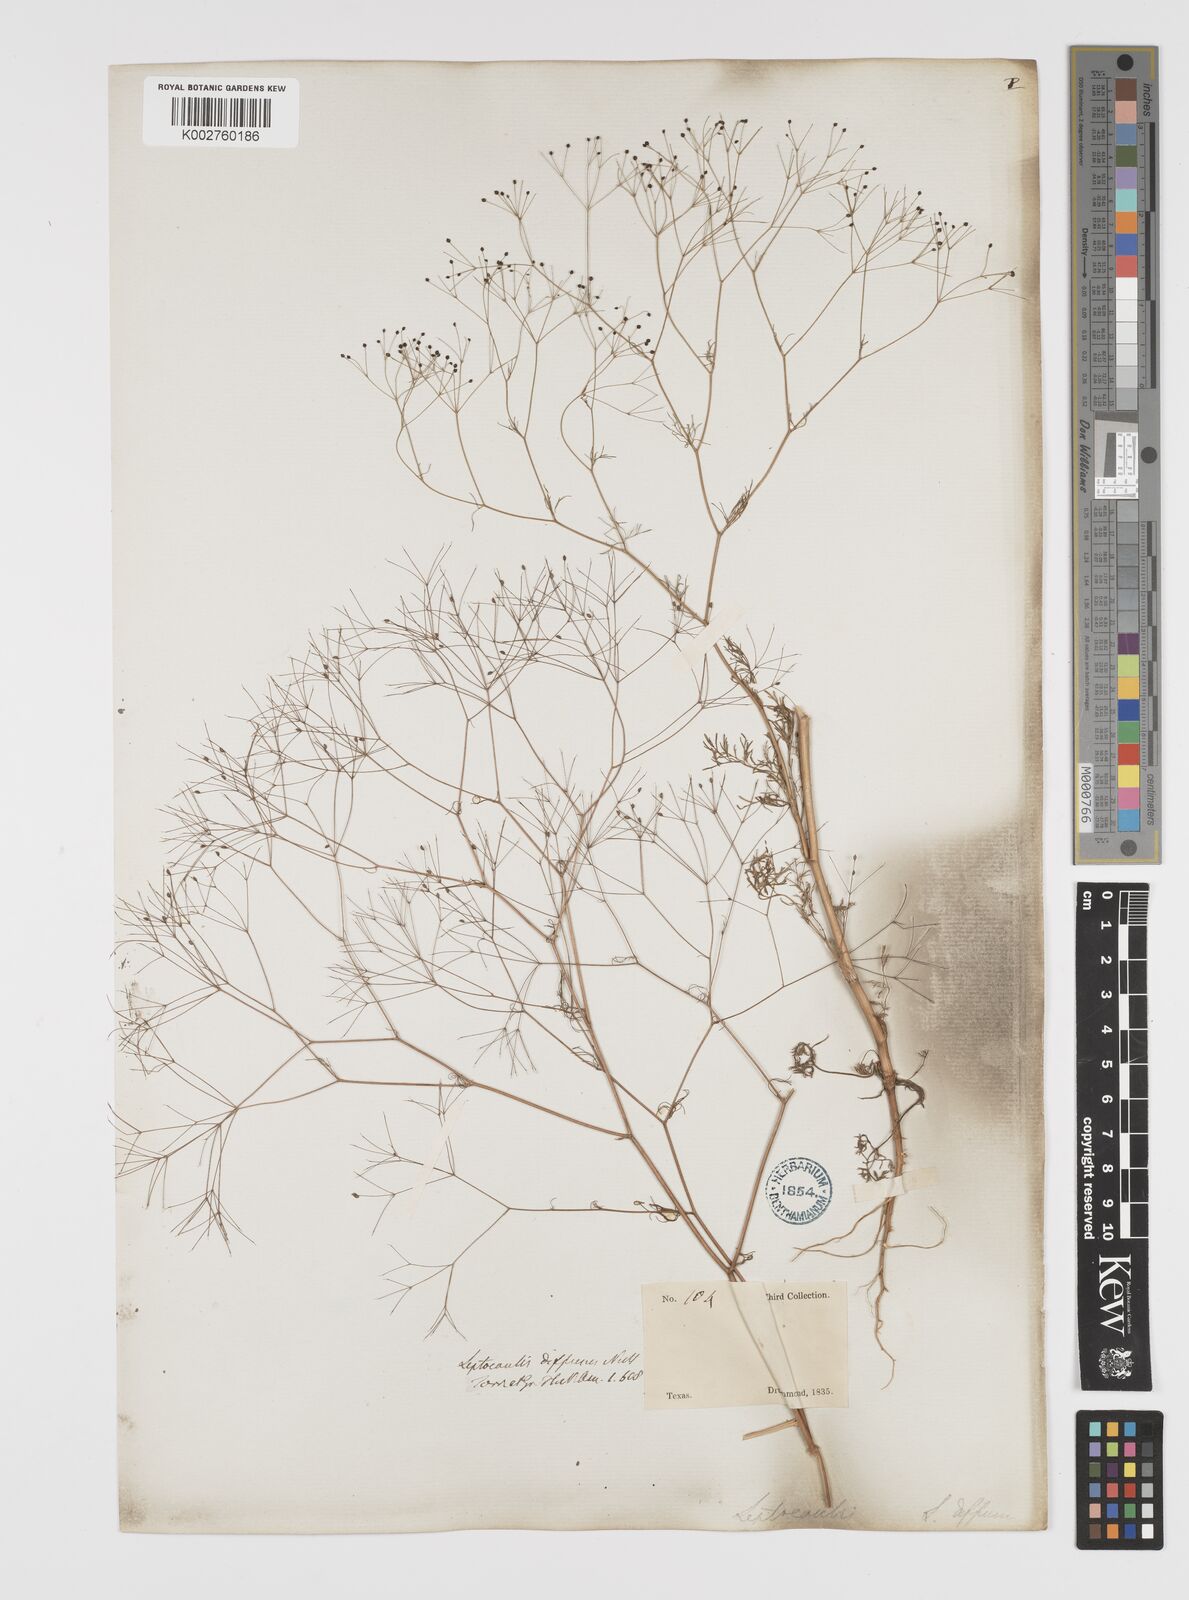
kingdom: Plantae
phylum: Tracheophyta
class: Magnoliopsida
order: Apiales
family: Apiaceae
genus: Spermolepis
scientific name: Spermolepis divaricata
